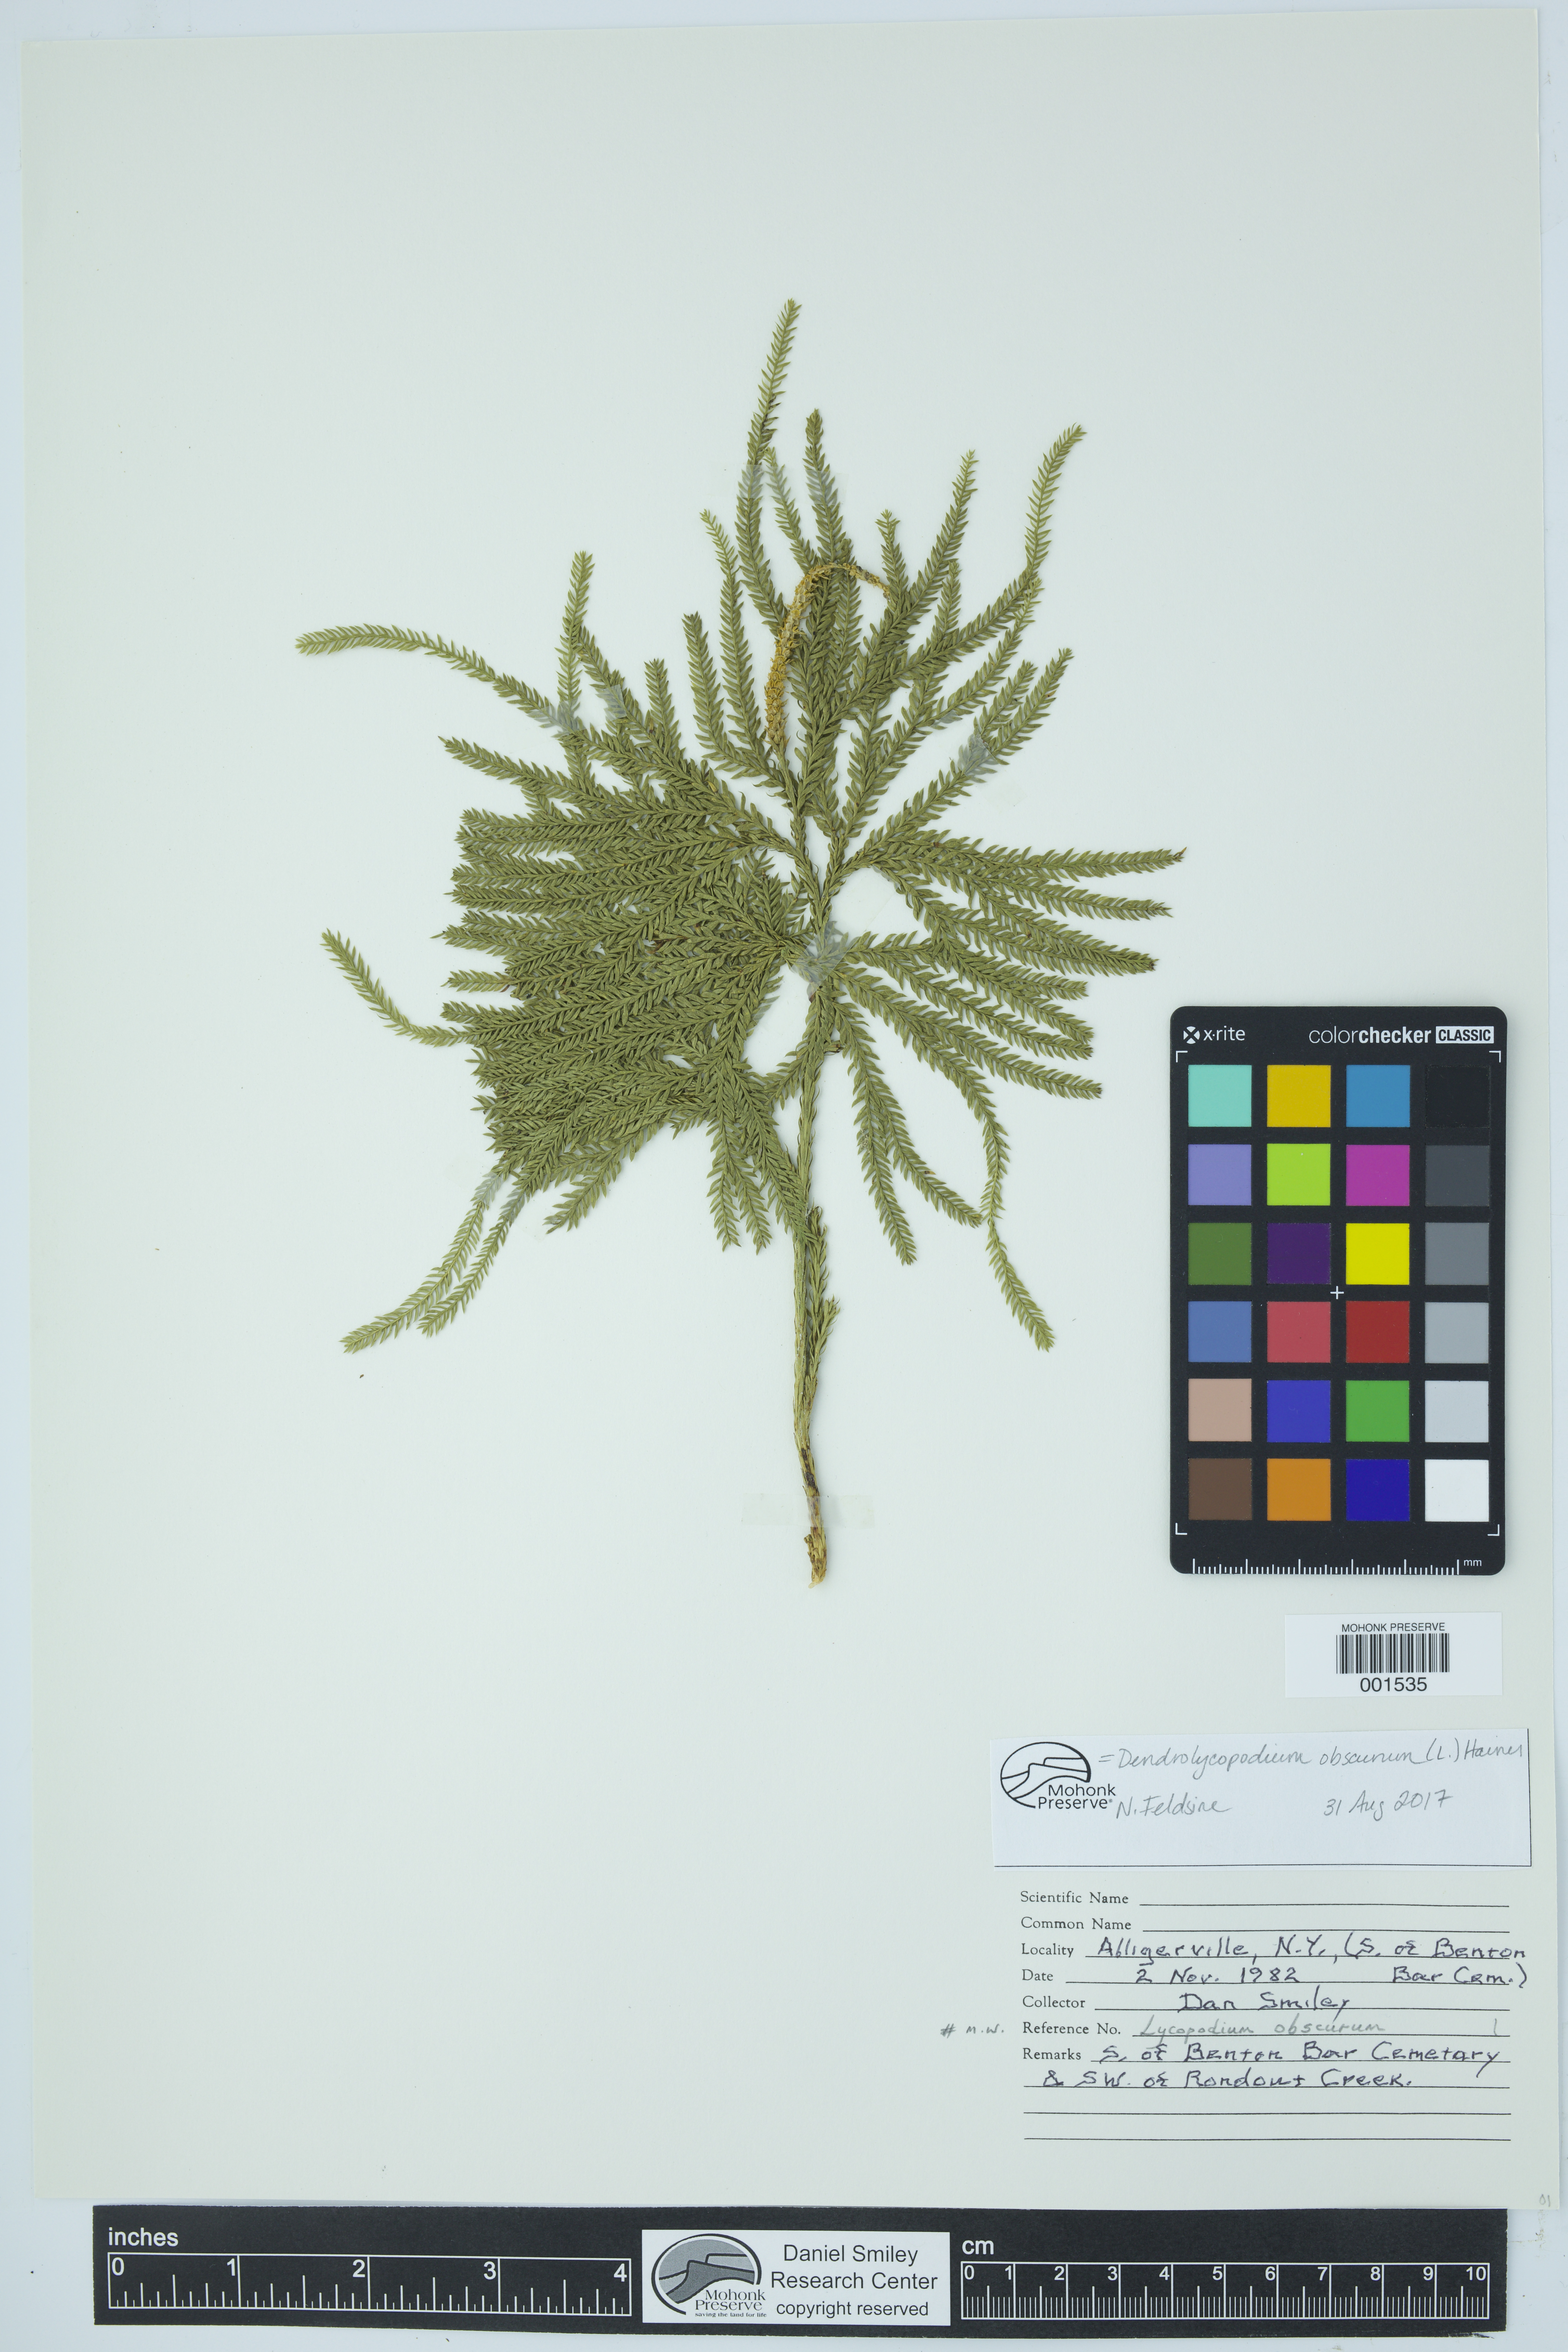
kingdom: Plantae
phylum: Tracheophyta
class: Lycopodiopsida
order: Lycopodiales
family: Lycopodiaceae
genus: Dendrolycopodium
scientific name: Dendrolycopodium obscurum
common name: Common ground-pine
